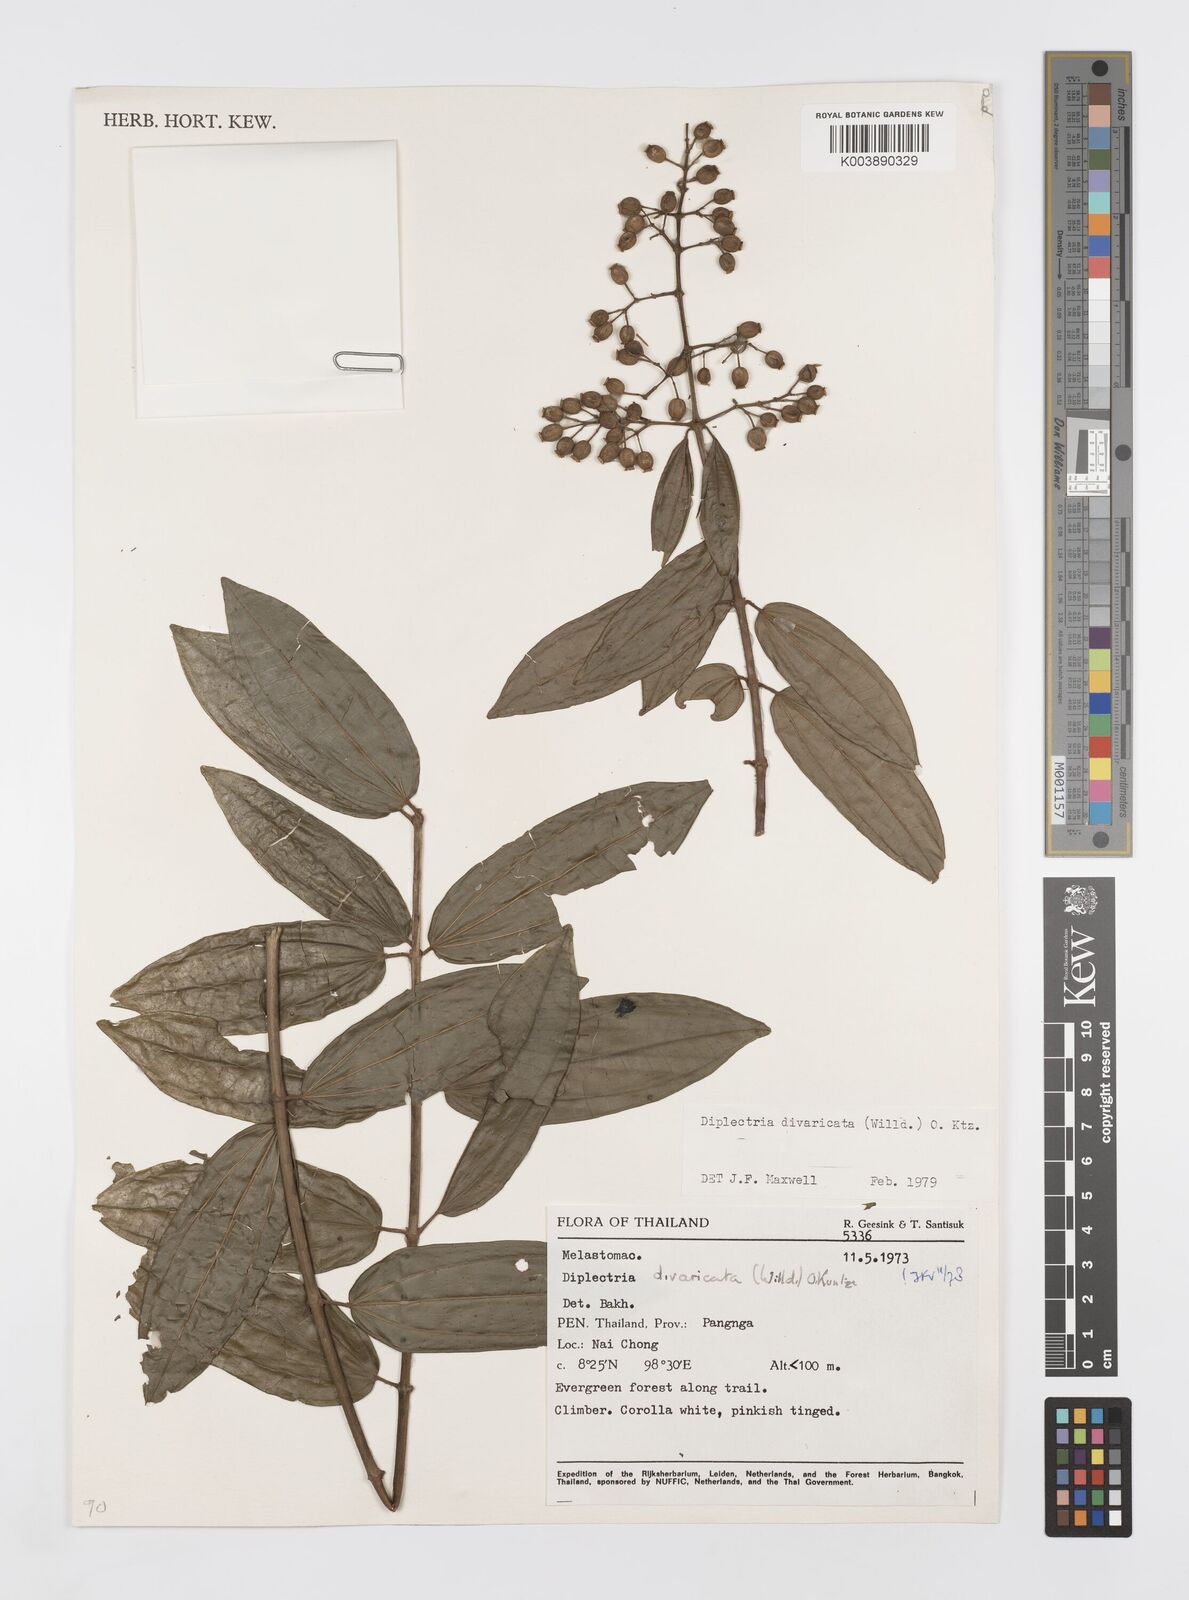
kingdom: Plantae
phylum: Tracheophyta
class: Magnoliopsida
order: Myrtales
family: Melastomataceae
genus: Diplectria
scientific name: Diplectria divaricata
